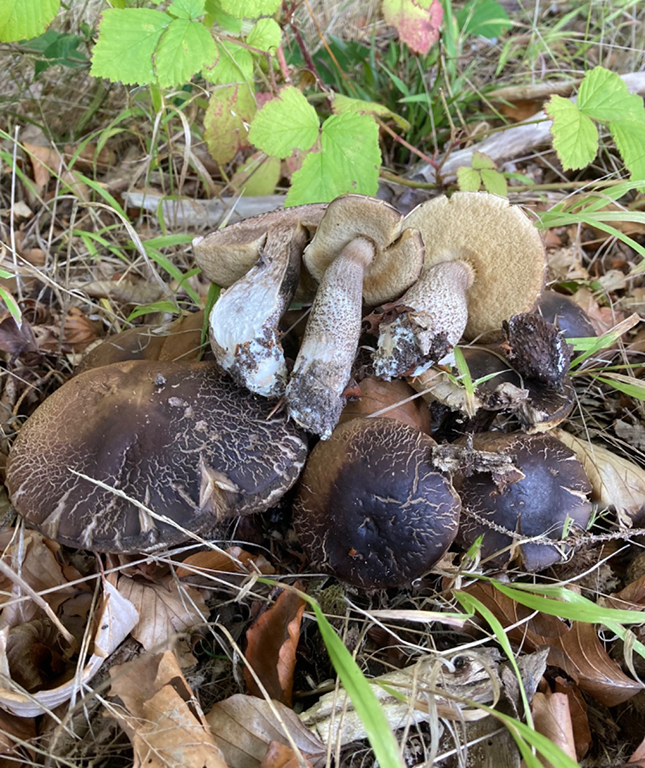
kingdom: Fungi
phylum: Basidiomycota
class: Agaricomycetes
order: Boletales
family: Boletaceae
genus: Leccinellum
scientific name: Leccinellum pseudoscabrum
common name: avnbøg-skælrørhat
